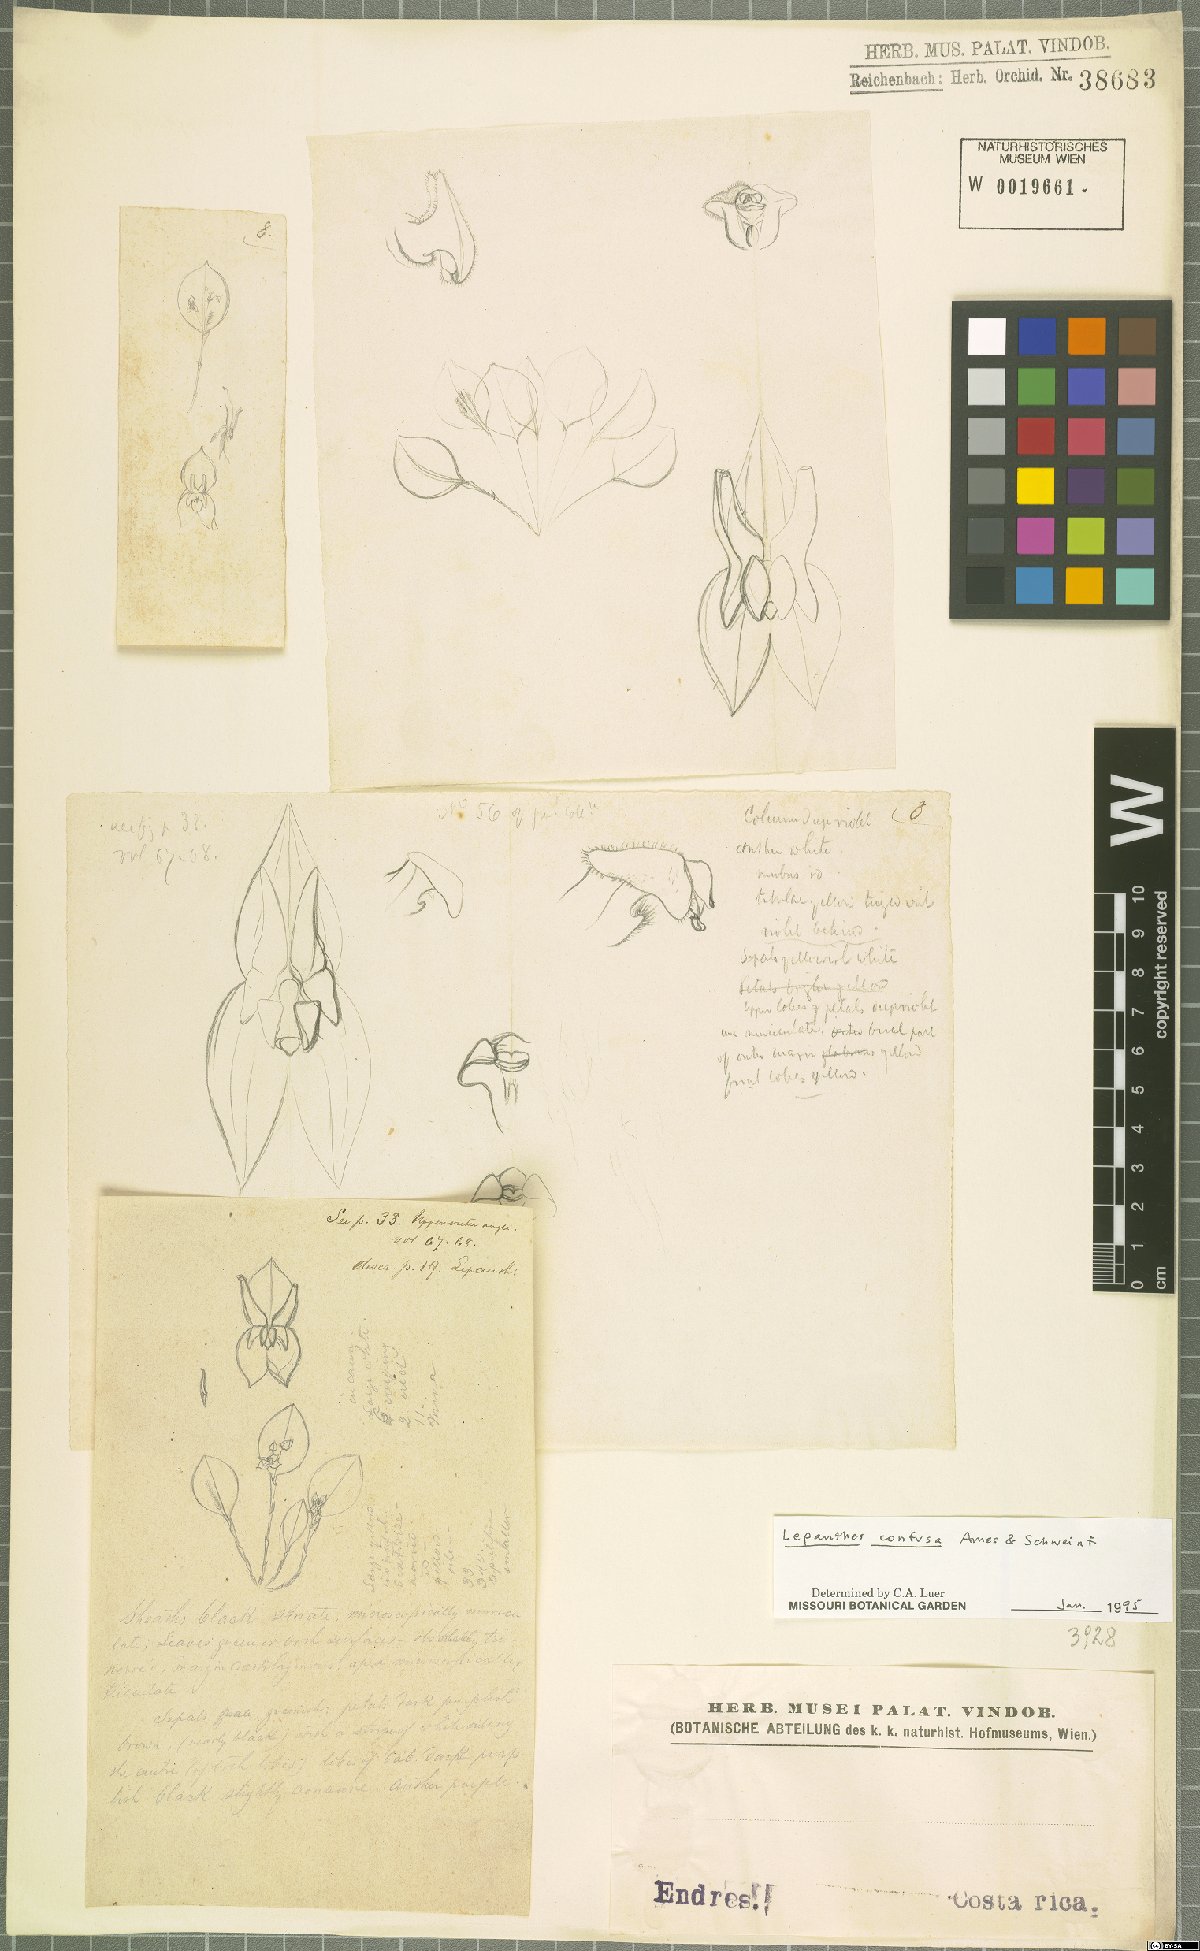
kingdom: Plantae
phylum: Tracheophyta
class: Liliopsida
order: Asparagales
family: Orchidaceae
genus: Lepanthes
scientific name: Lepanthes confusa
